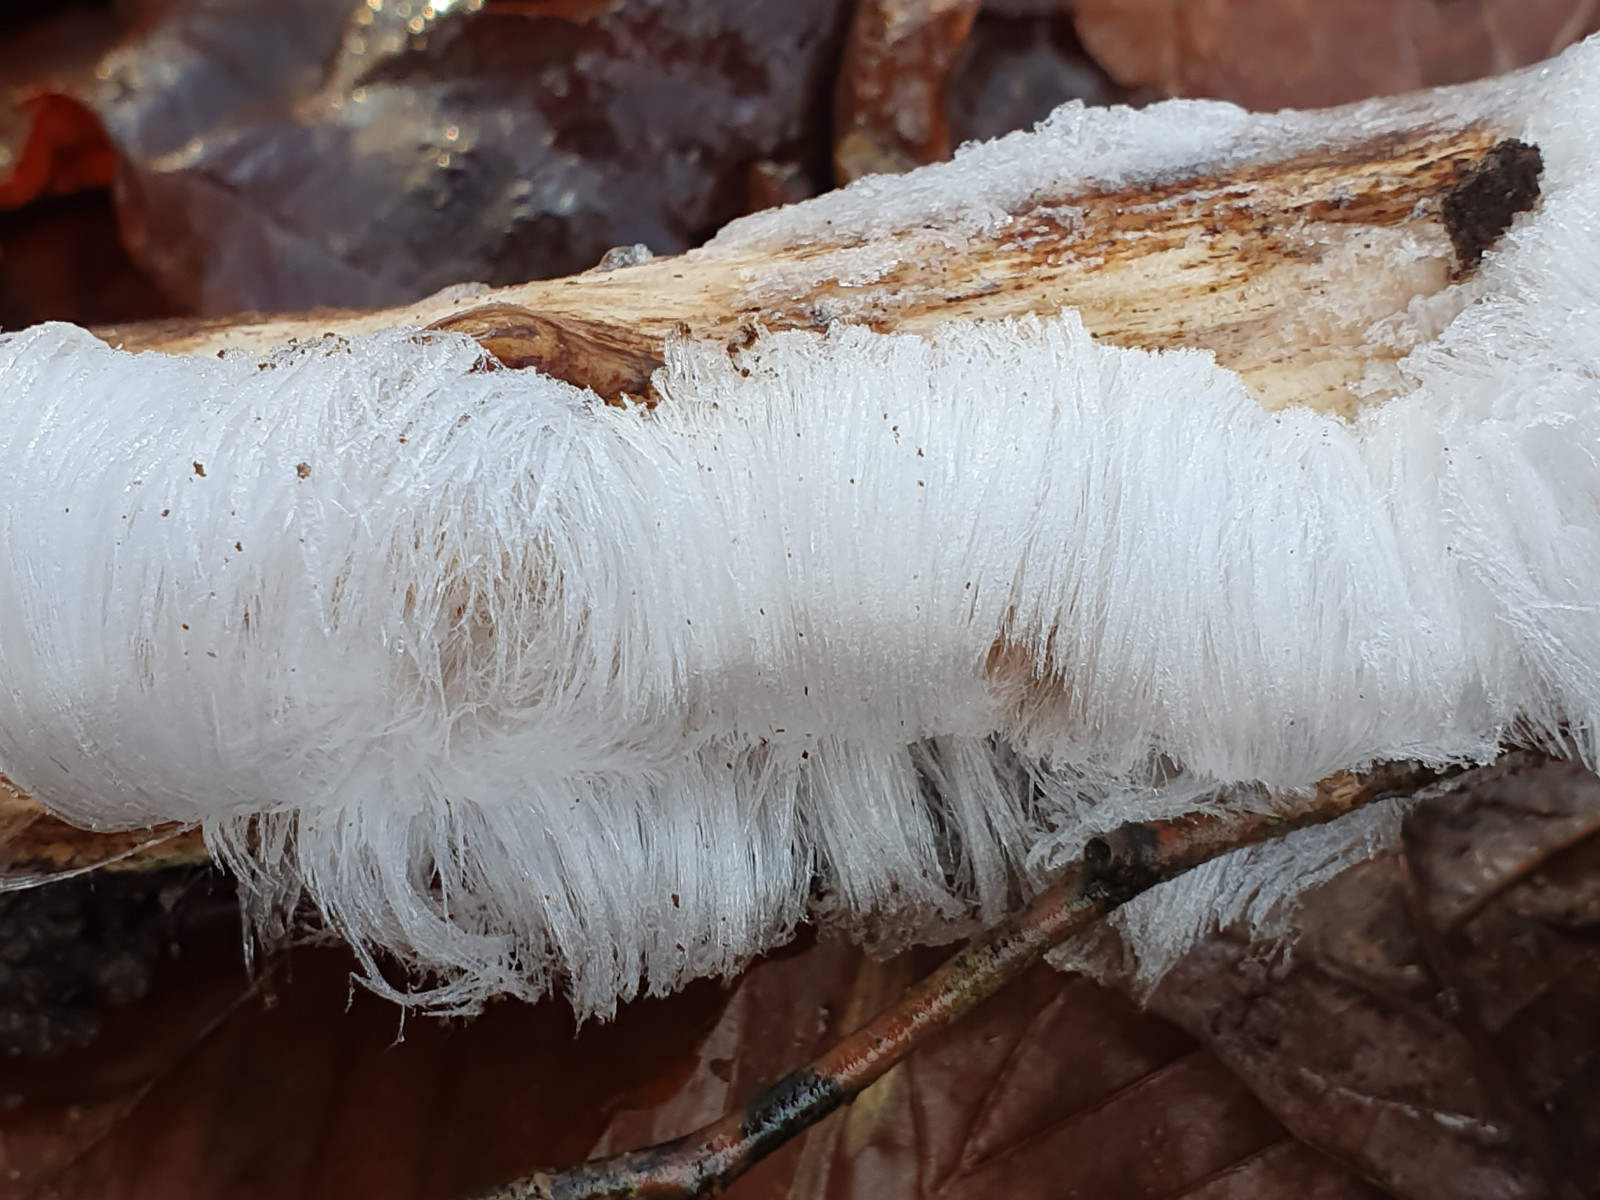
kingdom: Fungi
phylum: Basidiomycota
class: Tremellomycetes
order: Tremellales
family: Exidiaceae
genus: Exidiopsis
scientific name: Exidiopsis effusa
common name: smuk bævrehinde
